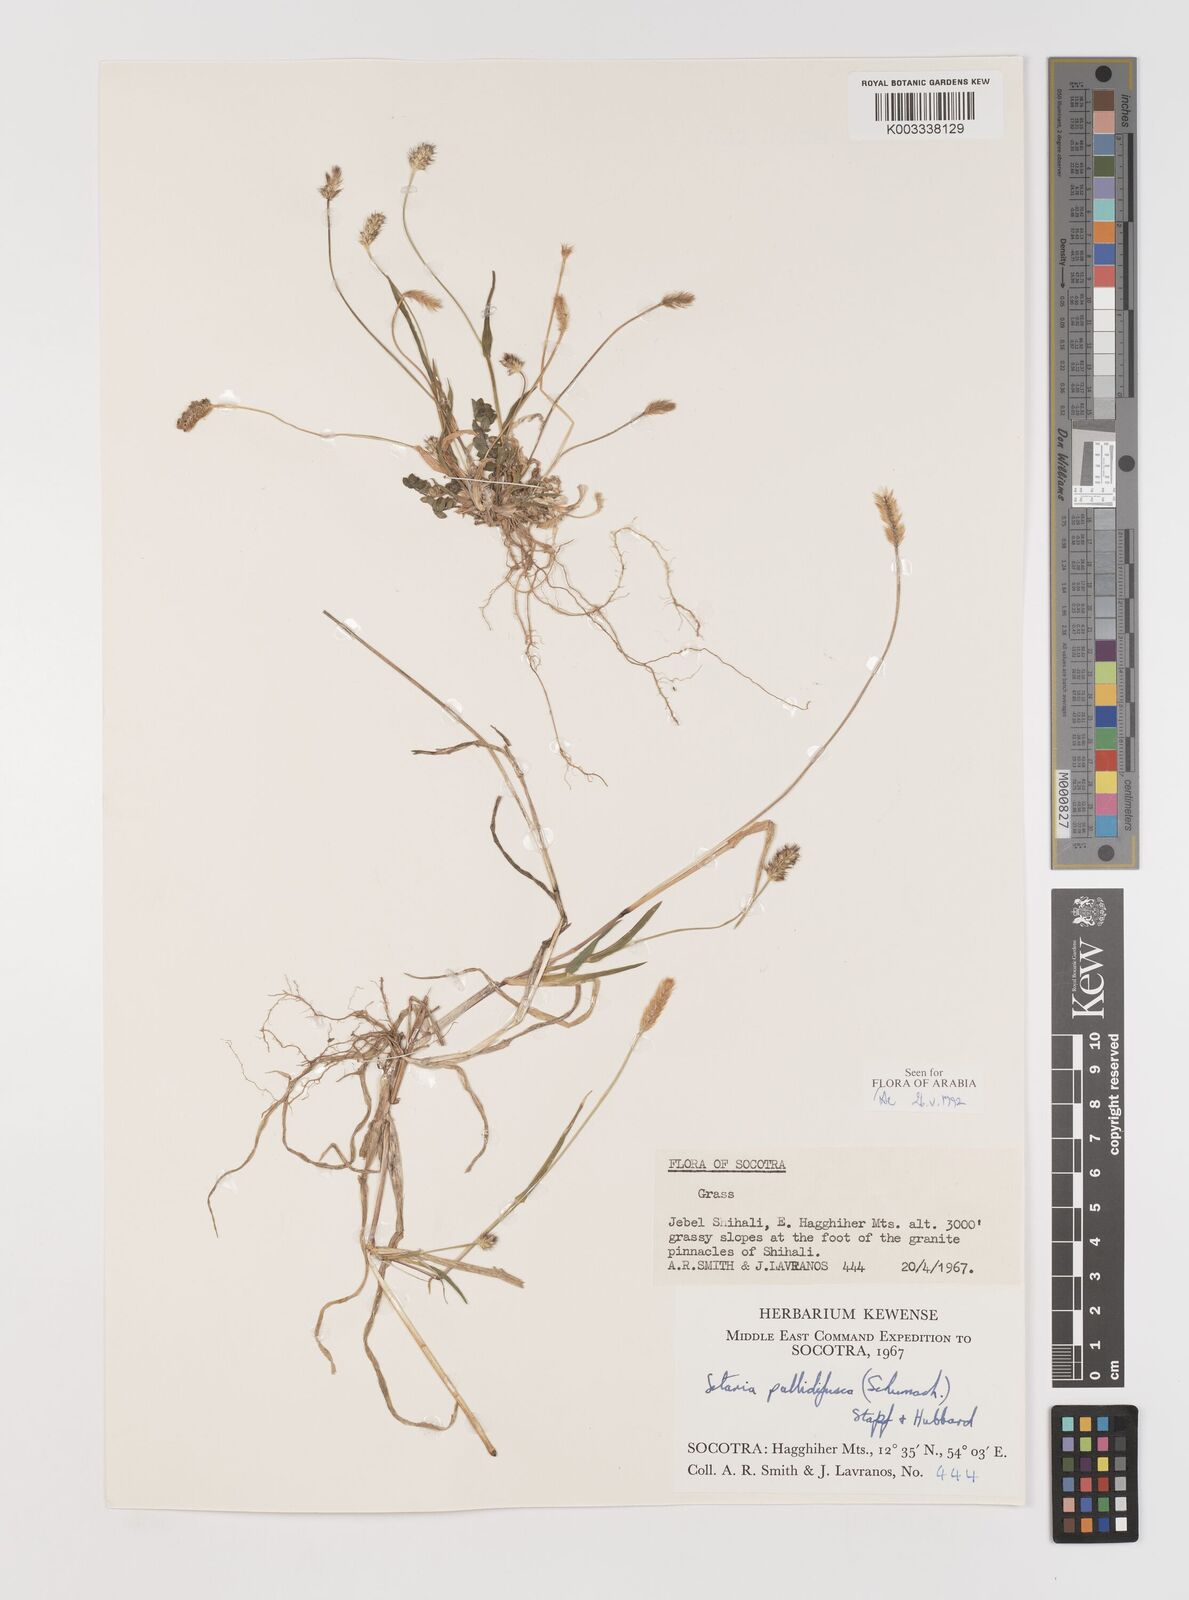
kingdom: Plantae
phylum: Tracheophyta
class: Liliopsida
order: Poales
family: Poaceae
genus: Setaria
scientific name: Setaria pumila
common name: Yellow bristle-grass
